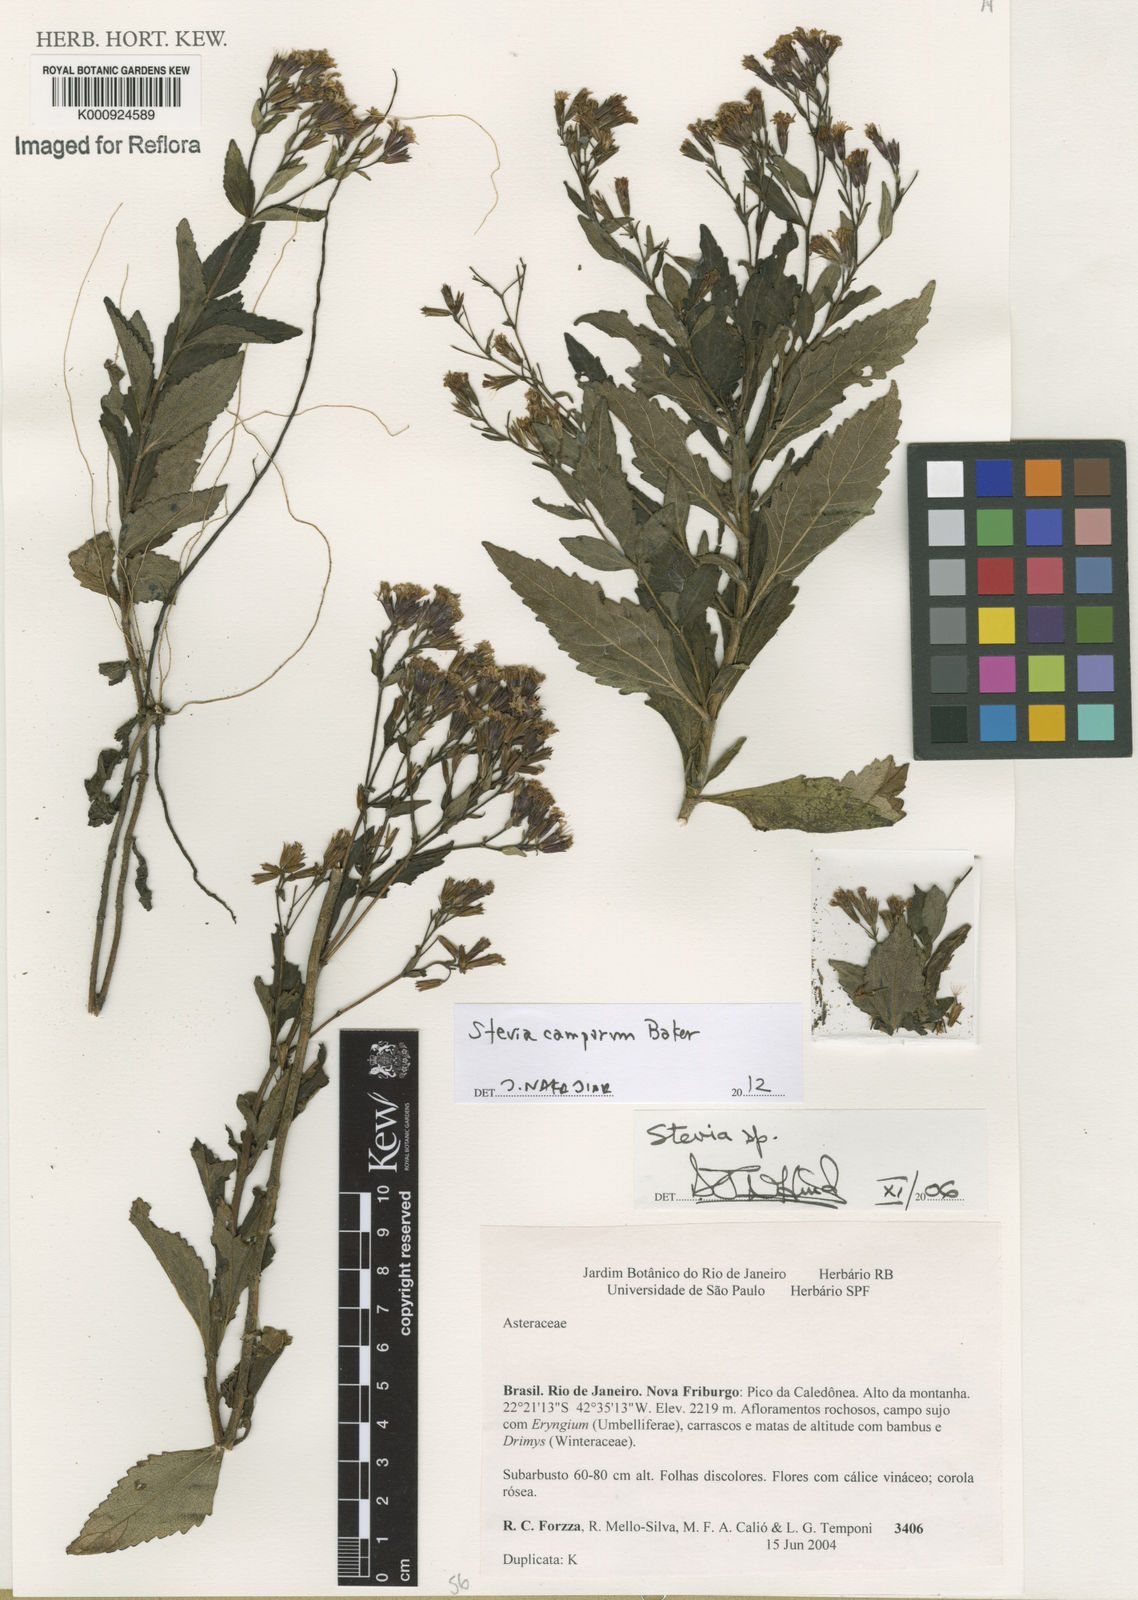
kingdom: Plantae
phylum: Tracheophyta
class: Magnoliopsida
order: Asterales
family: Asteraceae
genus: Stevia
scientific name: Stevia camporum
